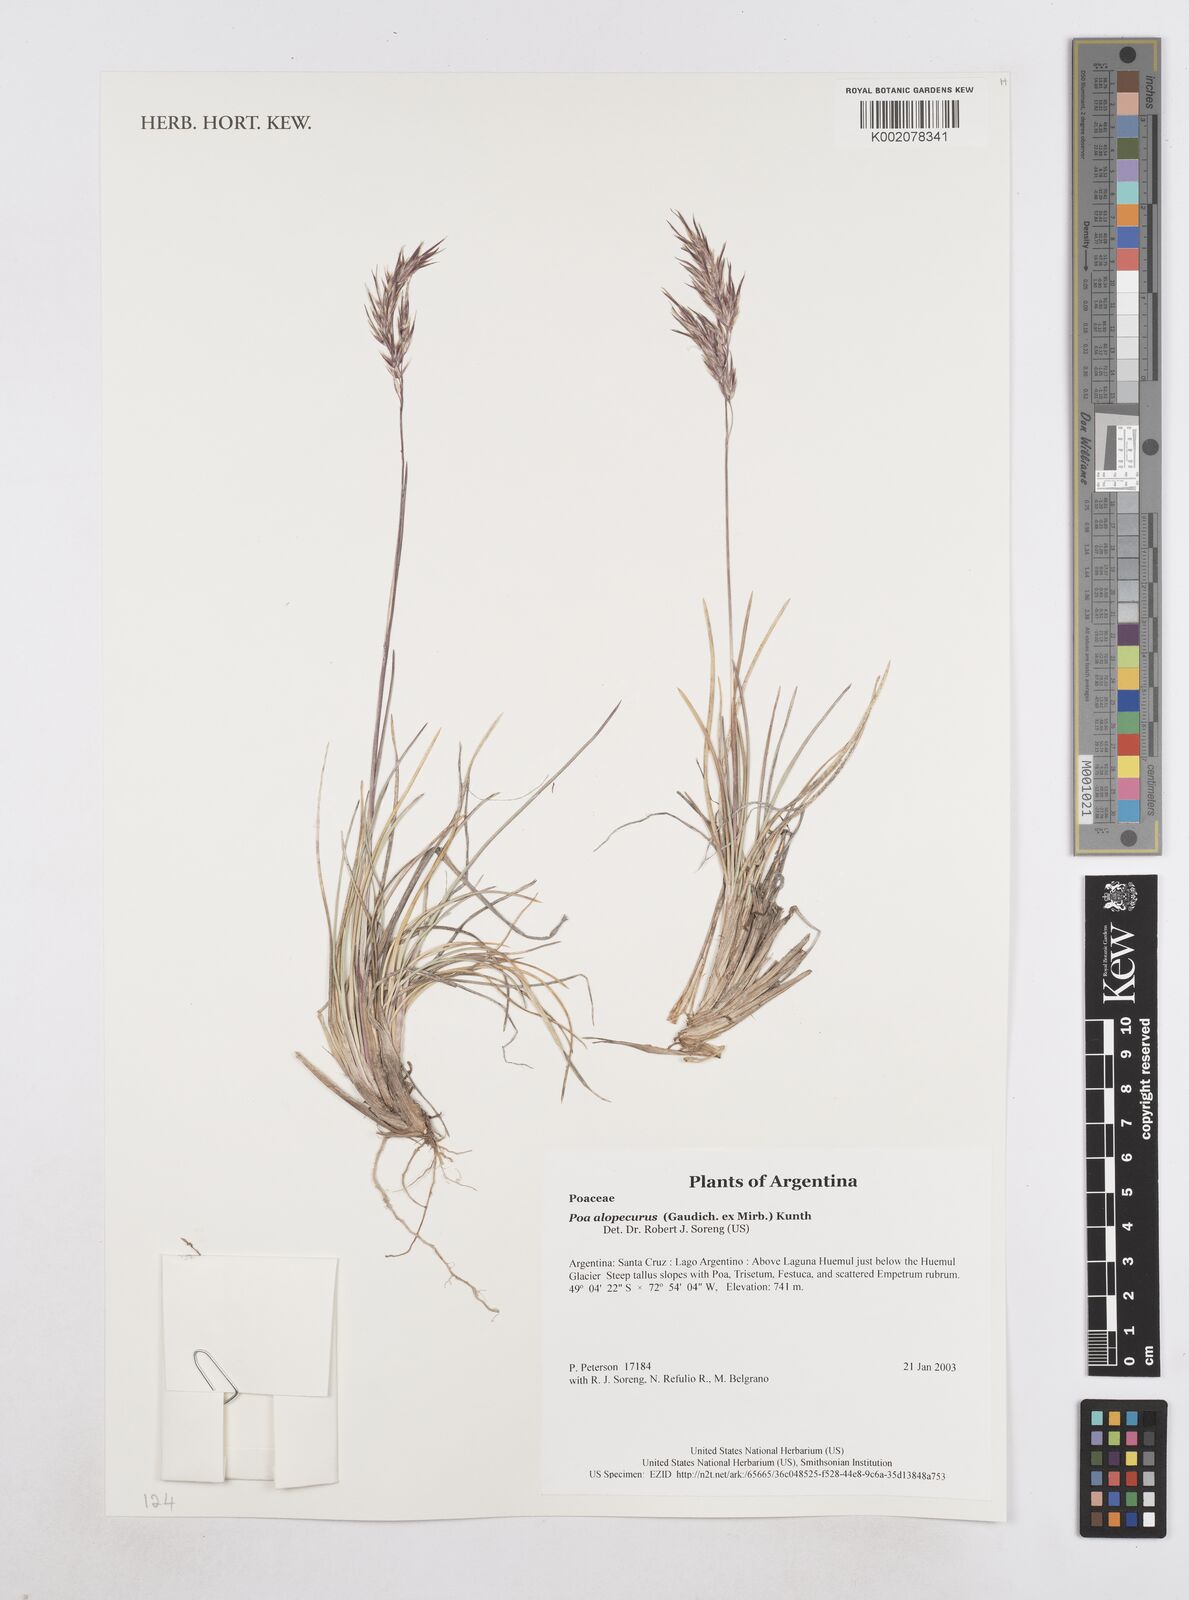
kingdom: Plantae
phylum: Tracheophyta
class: Liliopsida
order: Poales
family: Poaceae
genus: Poa
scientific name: Poa alopecurus
